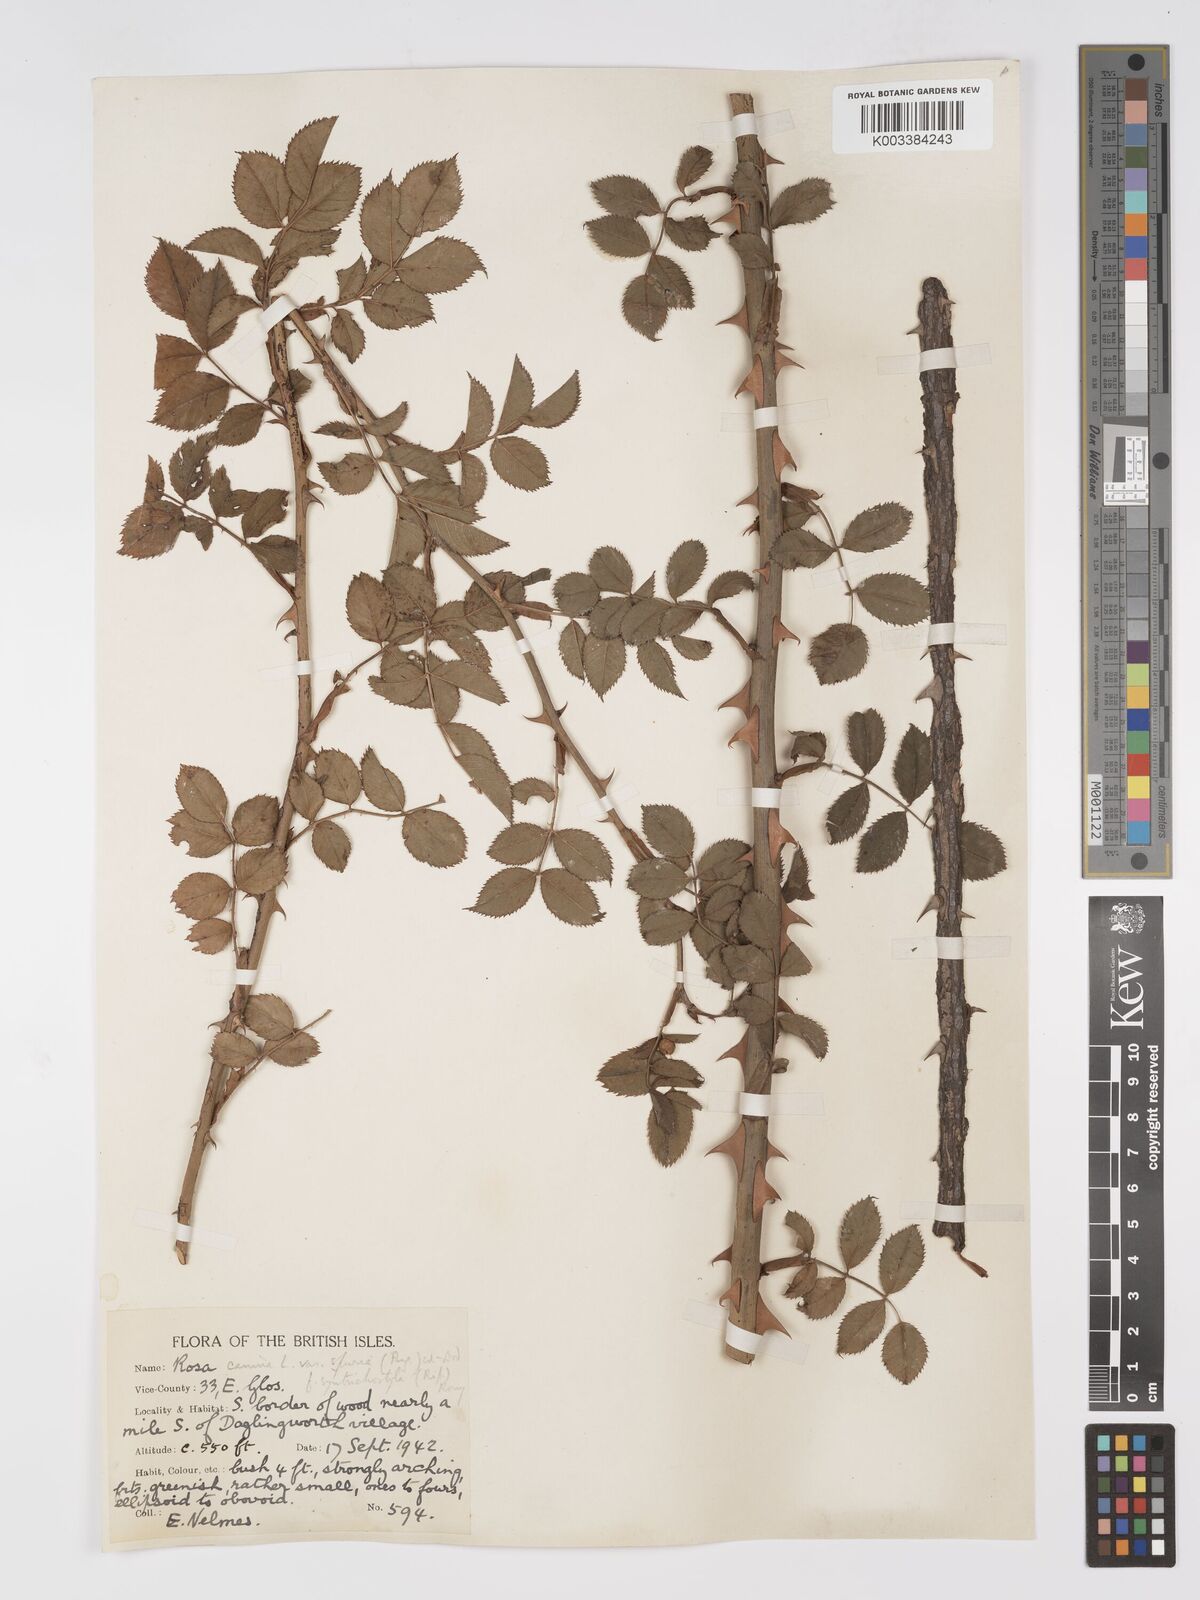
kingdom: Plantae
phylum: Tracheophyta
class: Magnoliopsida
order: Rosales
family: Rosaceae
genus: Rosa
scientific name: Rosa canina
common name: Dog rose
